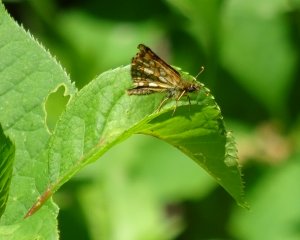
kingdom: Animalia
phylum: Arthropoda
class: Insecta
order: Lepidoptera
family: Hesperiidae
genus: Carterocephalus
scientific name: Carterocephalus palaemon
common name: Chequered Skipper
